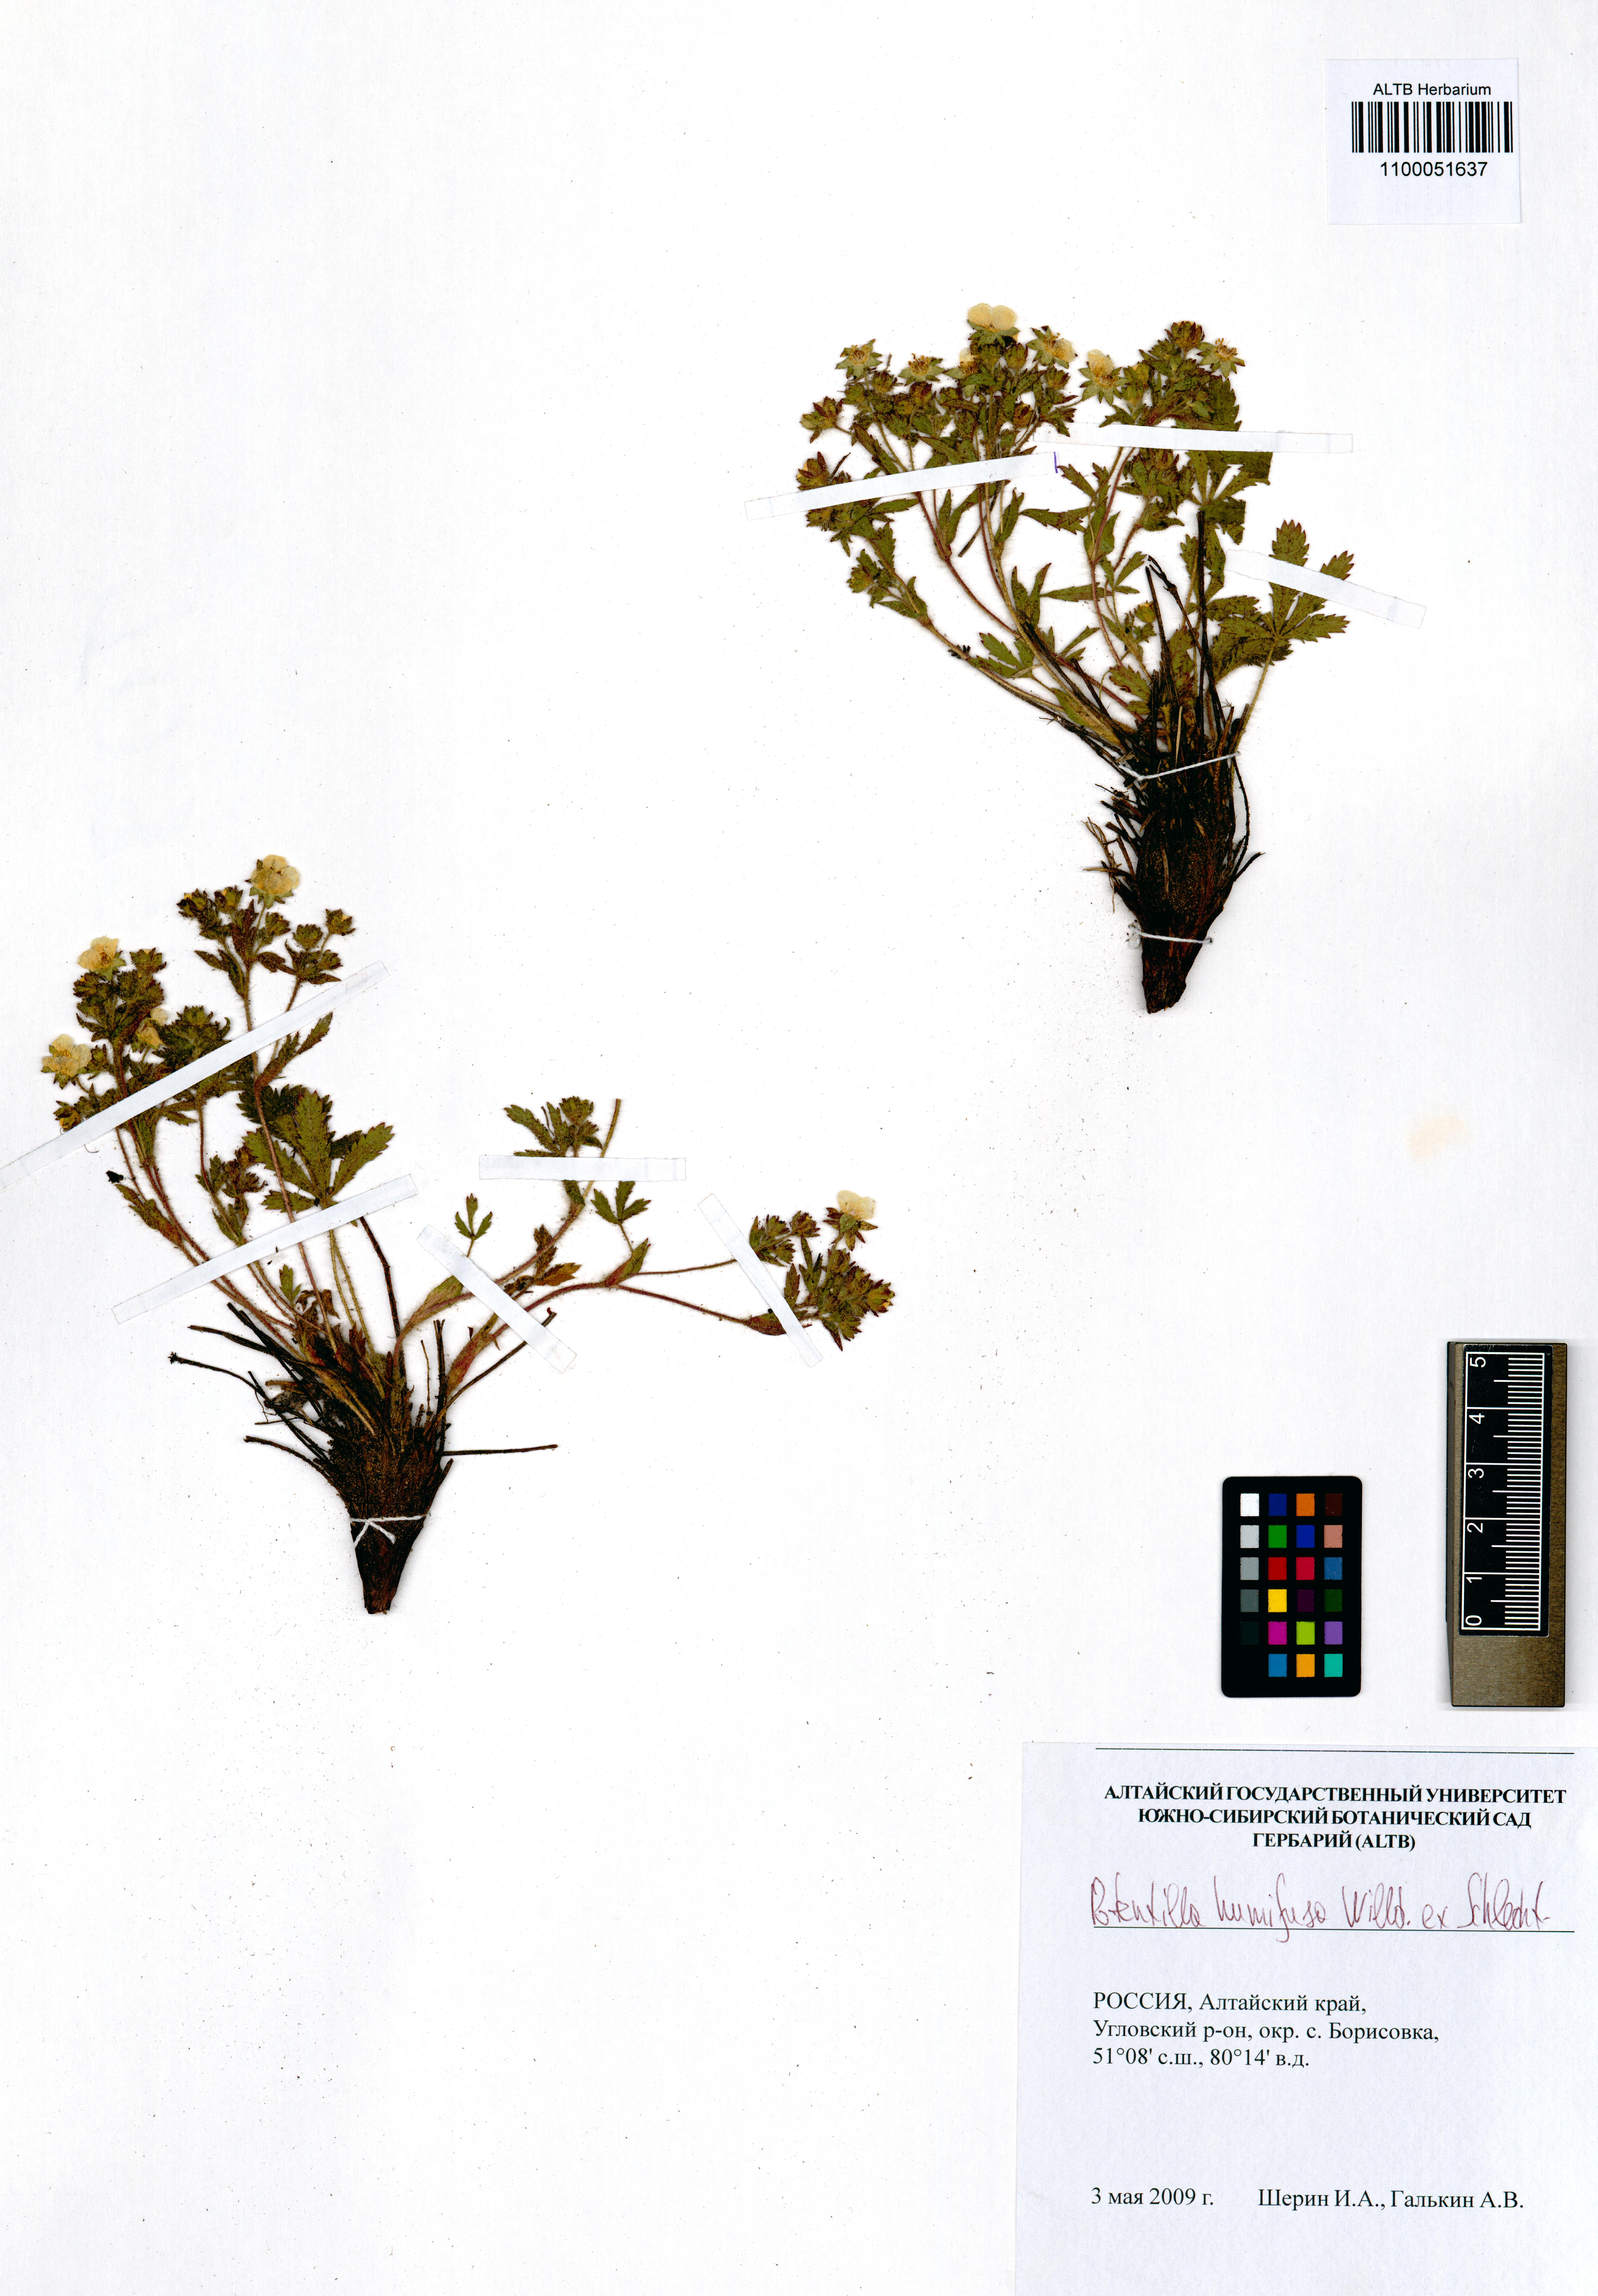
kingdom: Plantae
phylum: Tracheophyta
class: Magnoliopsida
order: Rosales
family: Rosaceae
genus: Potentilla
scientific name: Potentilla humifusa
